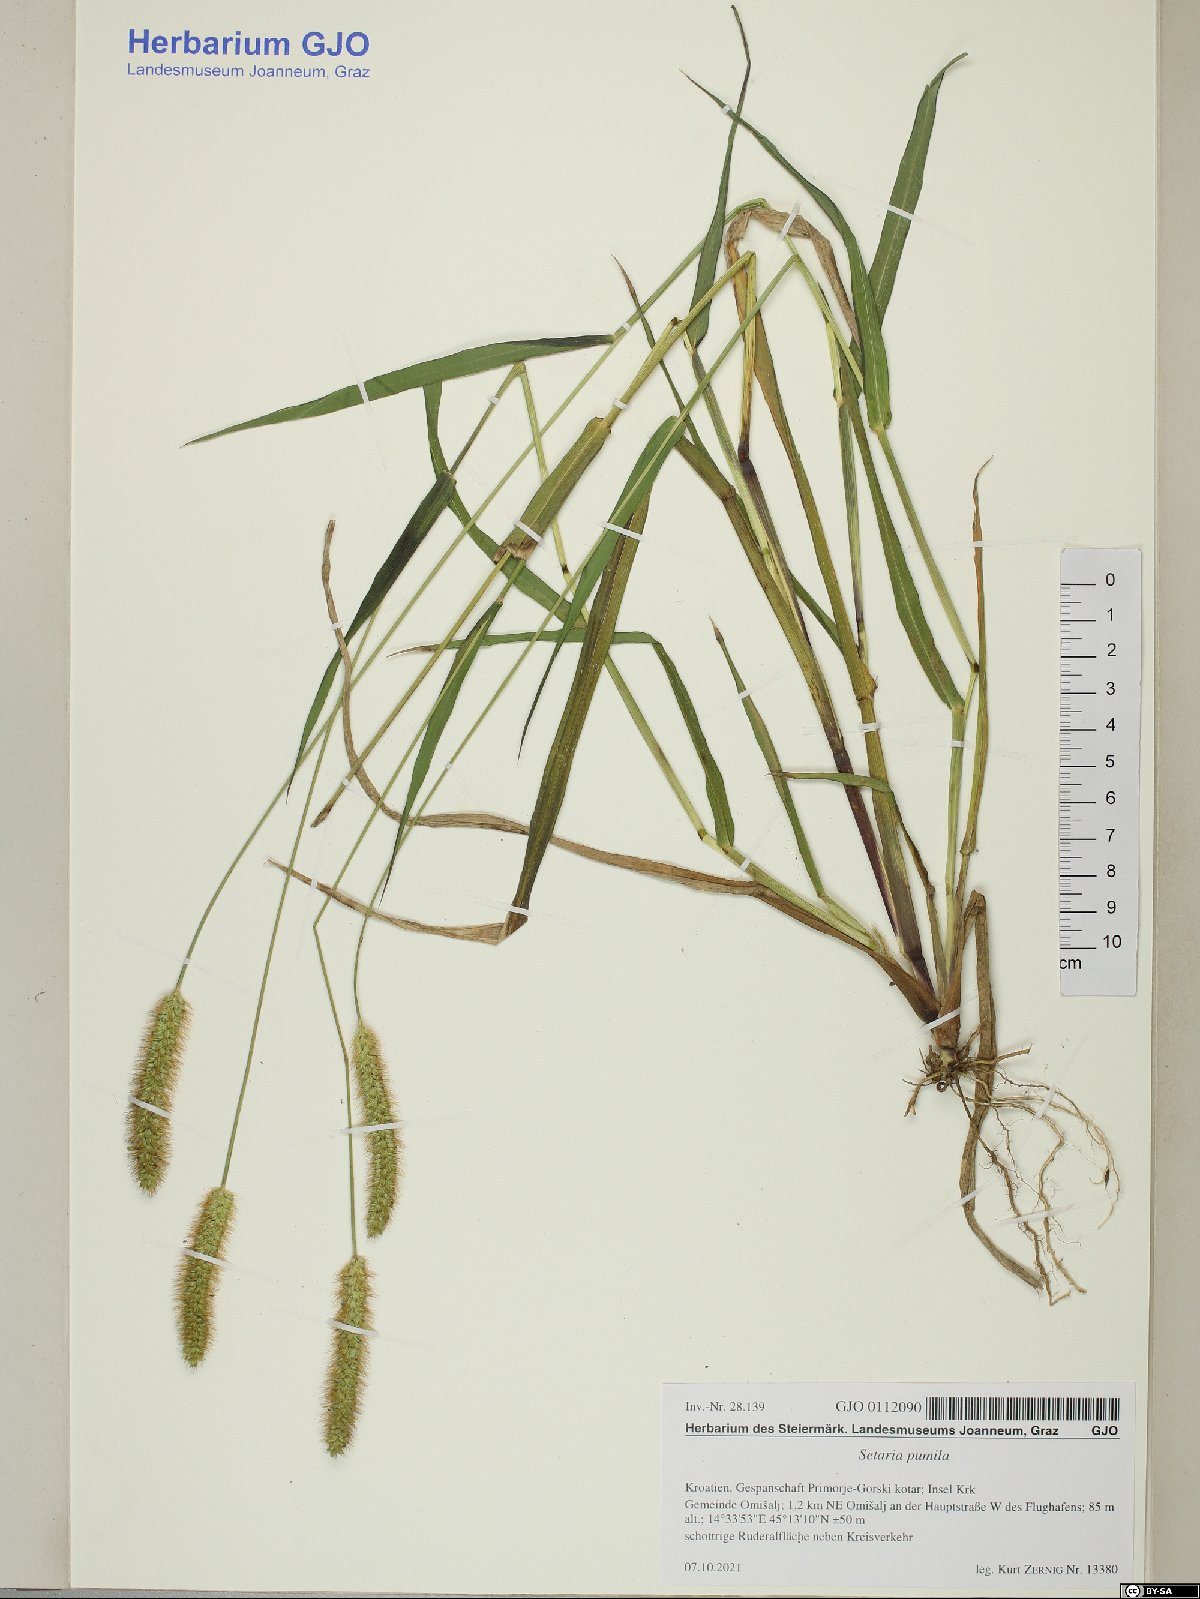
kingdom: Plantae
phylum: Tracheophyta
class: Liliopsida
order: Poales
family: Poaceae
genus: Setaria
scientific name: Setaria pumila
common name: Yellow bristle-grass
